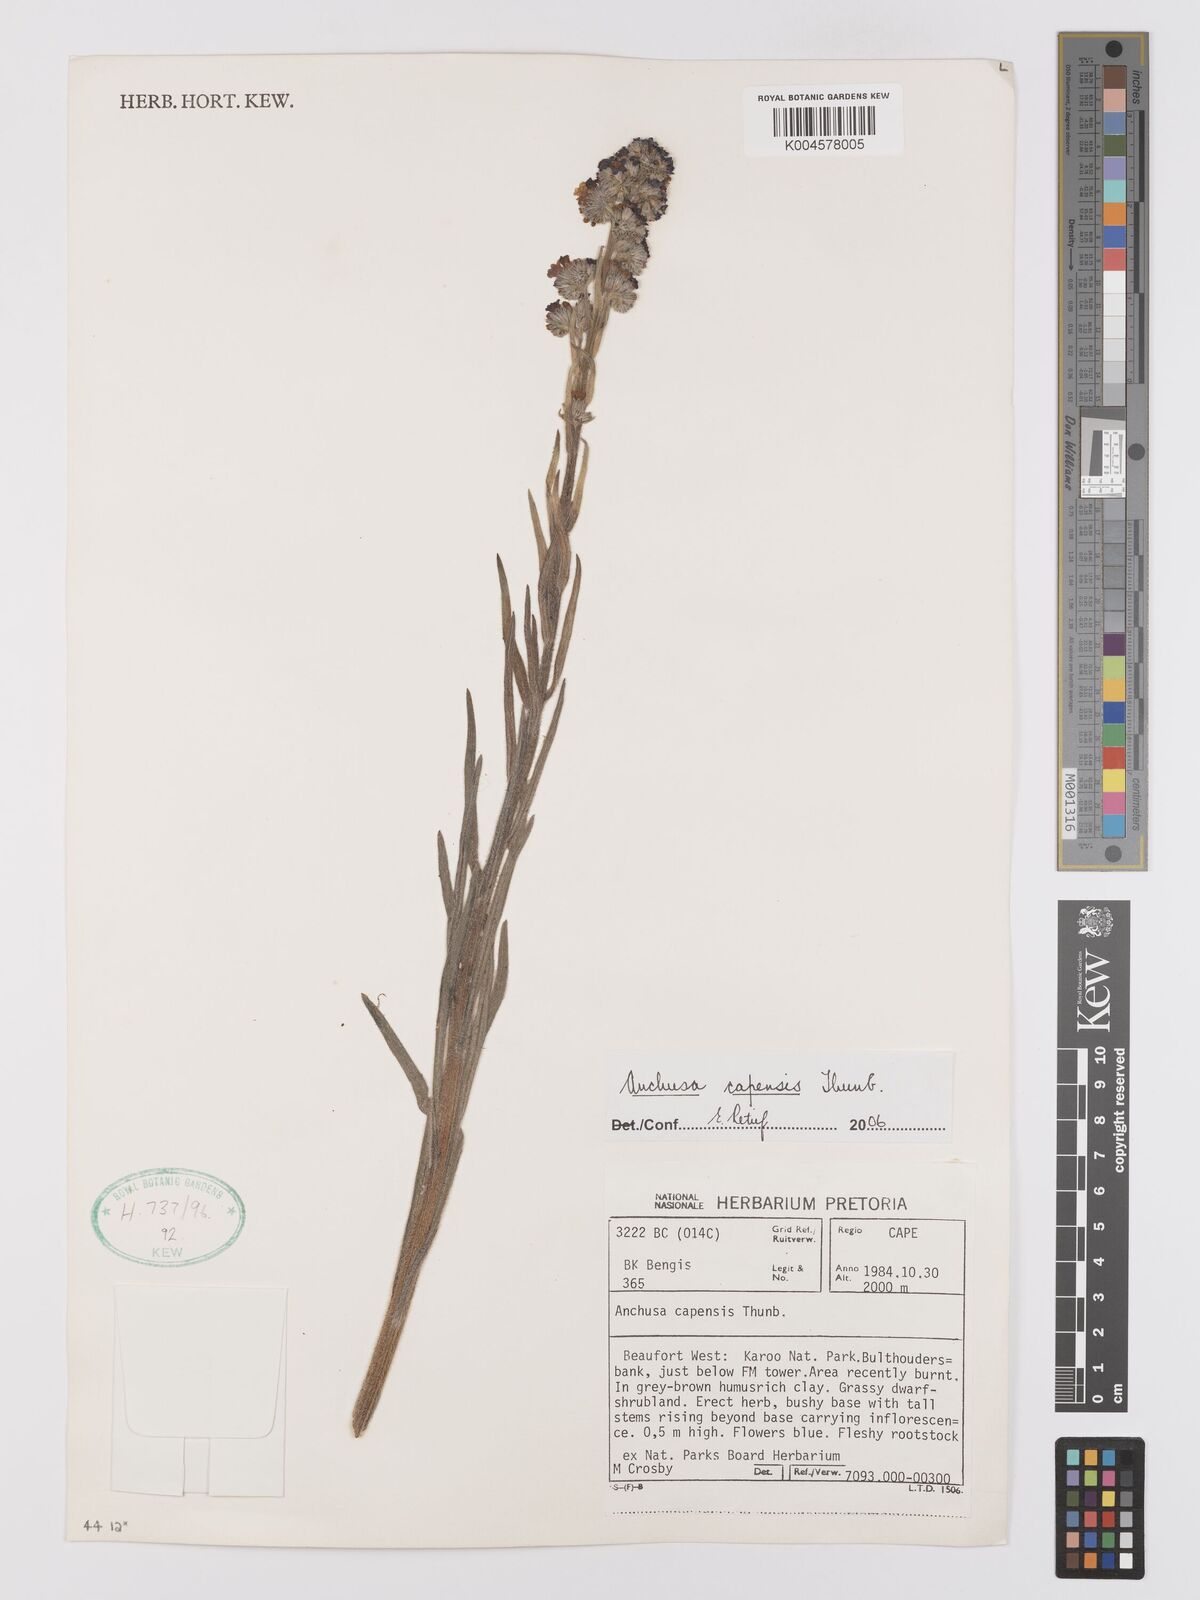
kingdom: Plantae
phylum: Tracheophyta
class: Magnoliopsida
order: Boraginales
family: Boraginaceae
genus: Anchusa
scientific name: Anchusa capensis
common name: Cape bugloss
